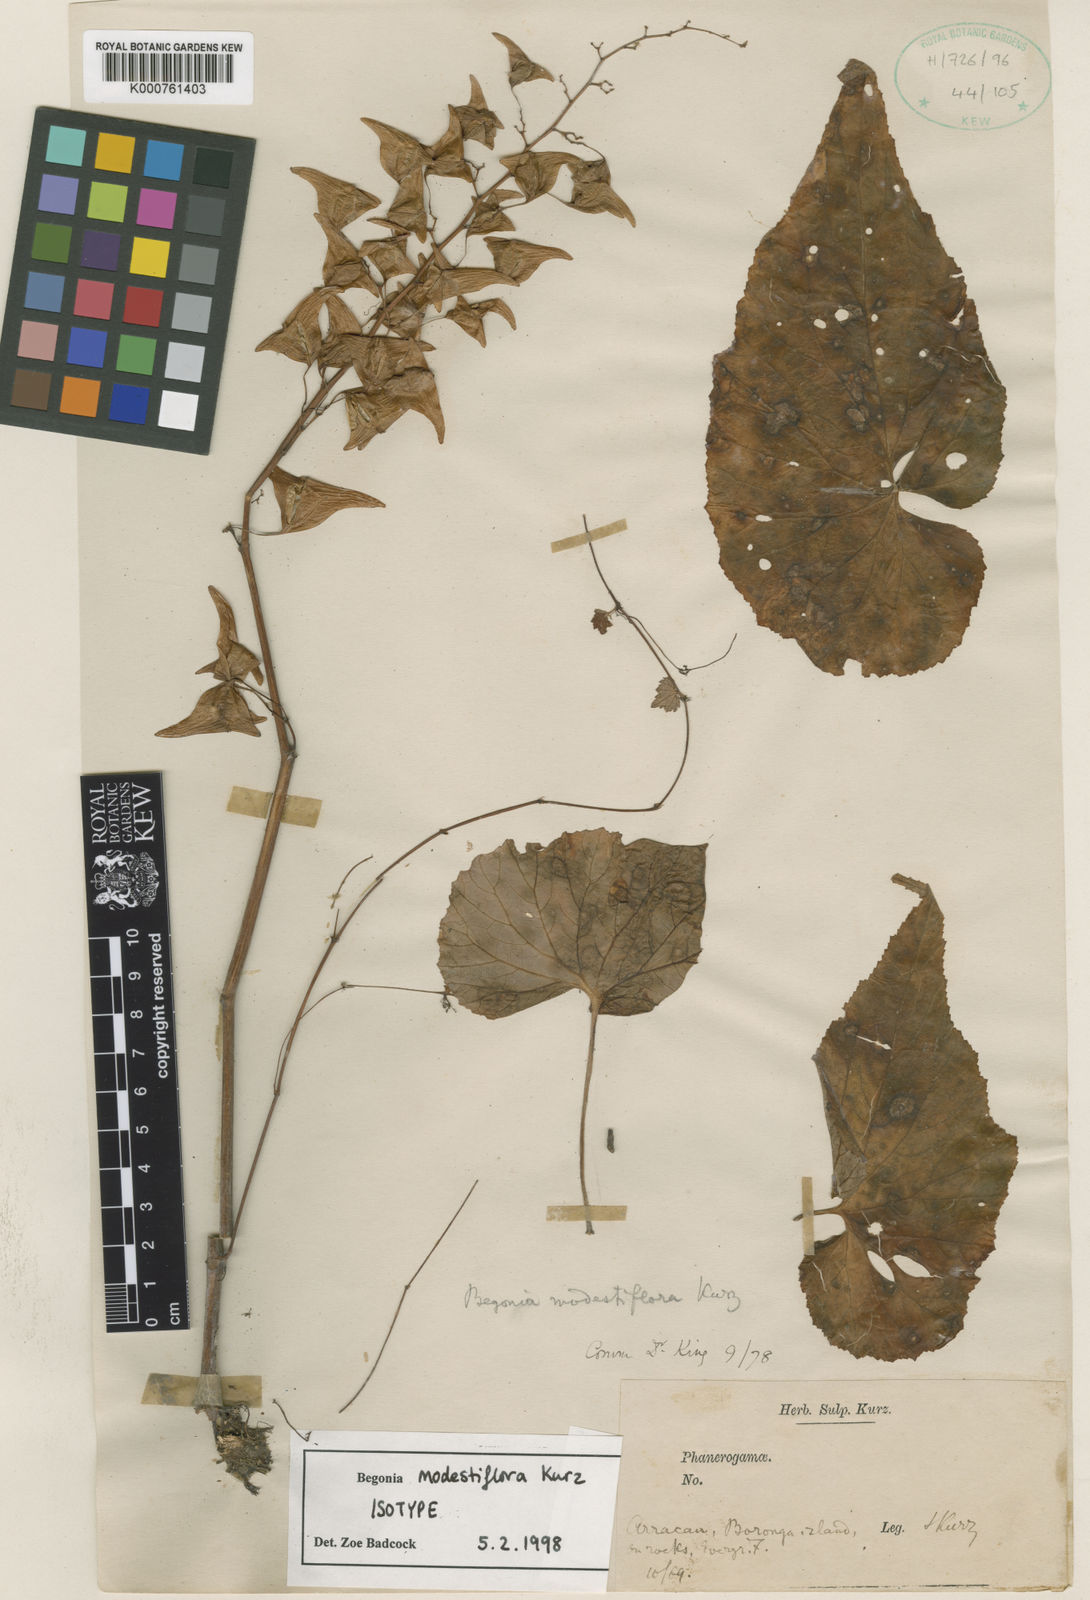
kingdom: Plantae
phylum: Tracheophyta
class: Magnoliopsida
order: Cucurbitales
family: Begoniaceae
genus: Begonia
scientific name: Begonia modestiflora
